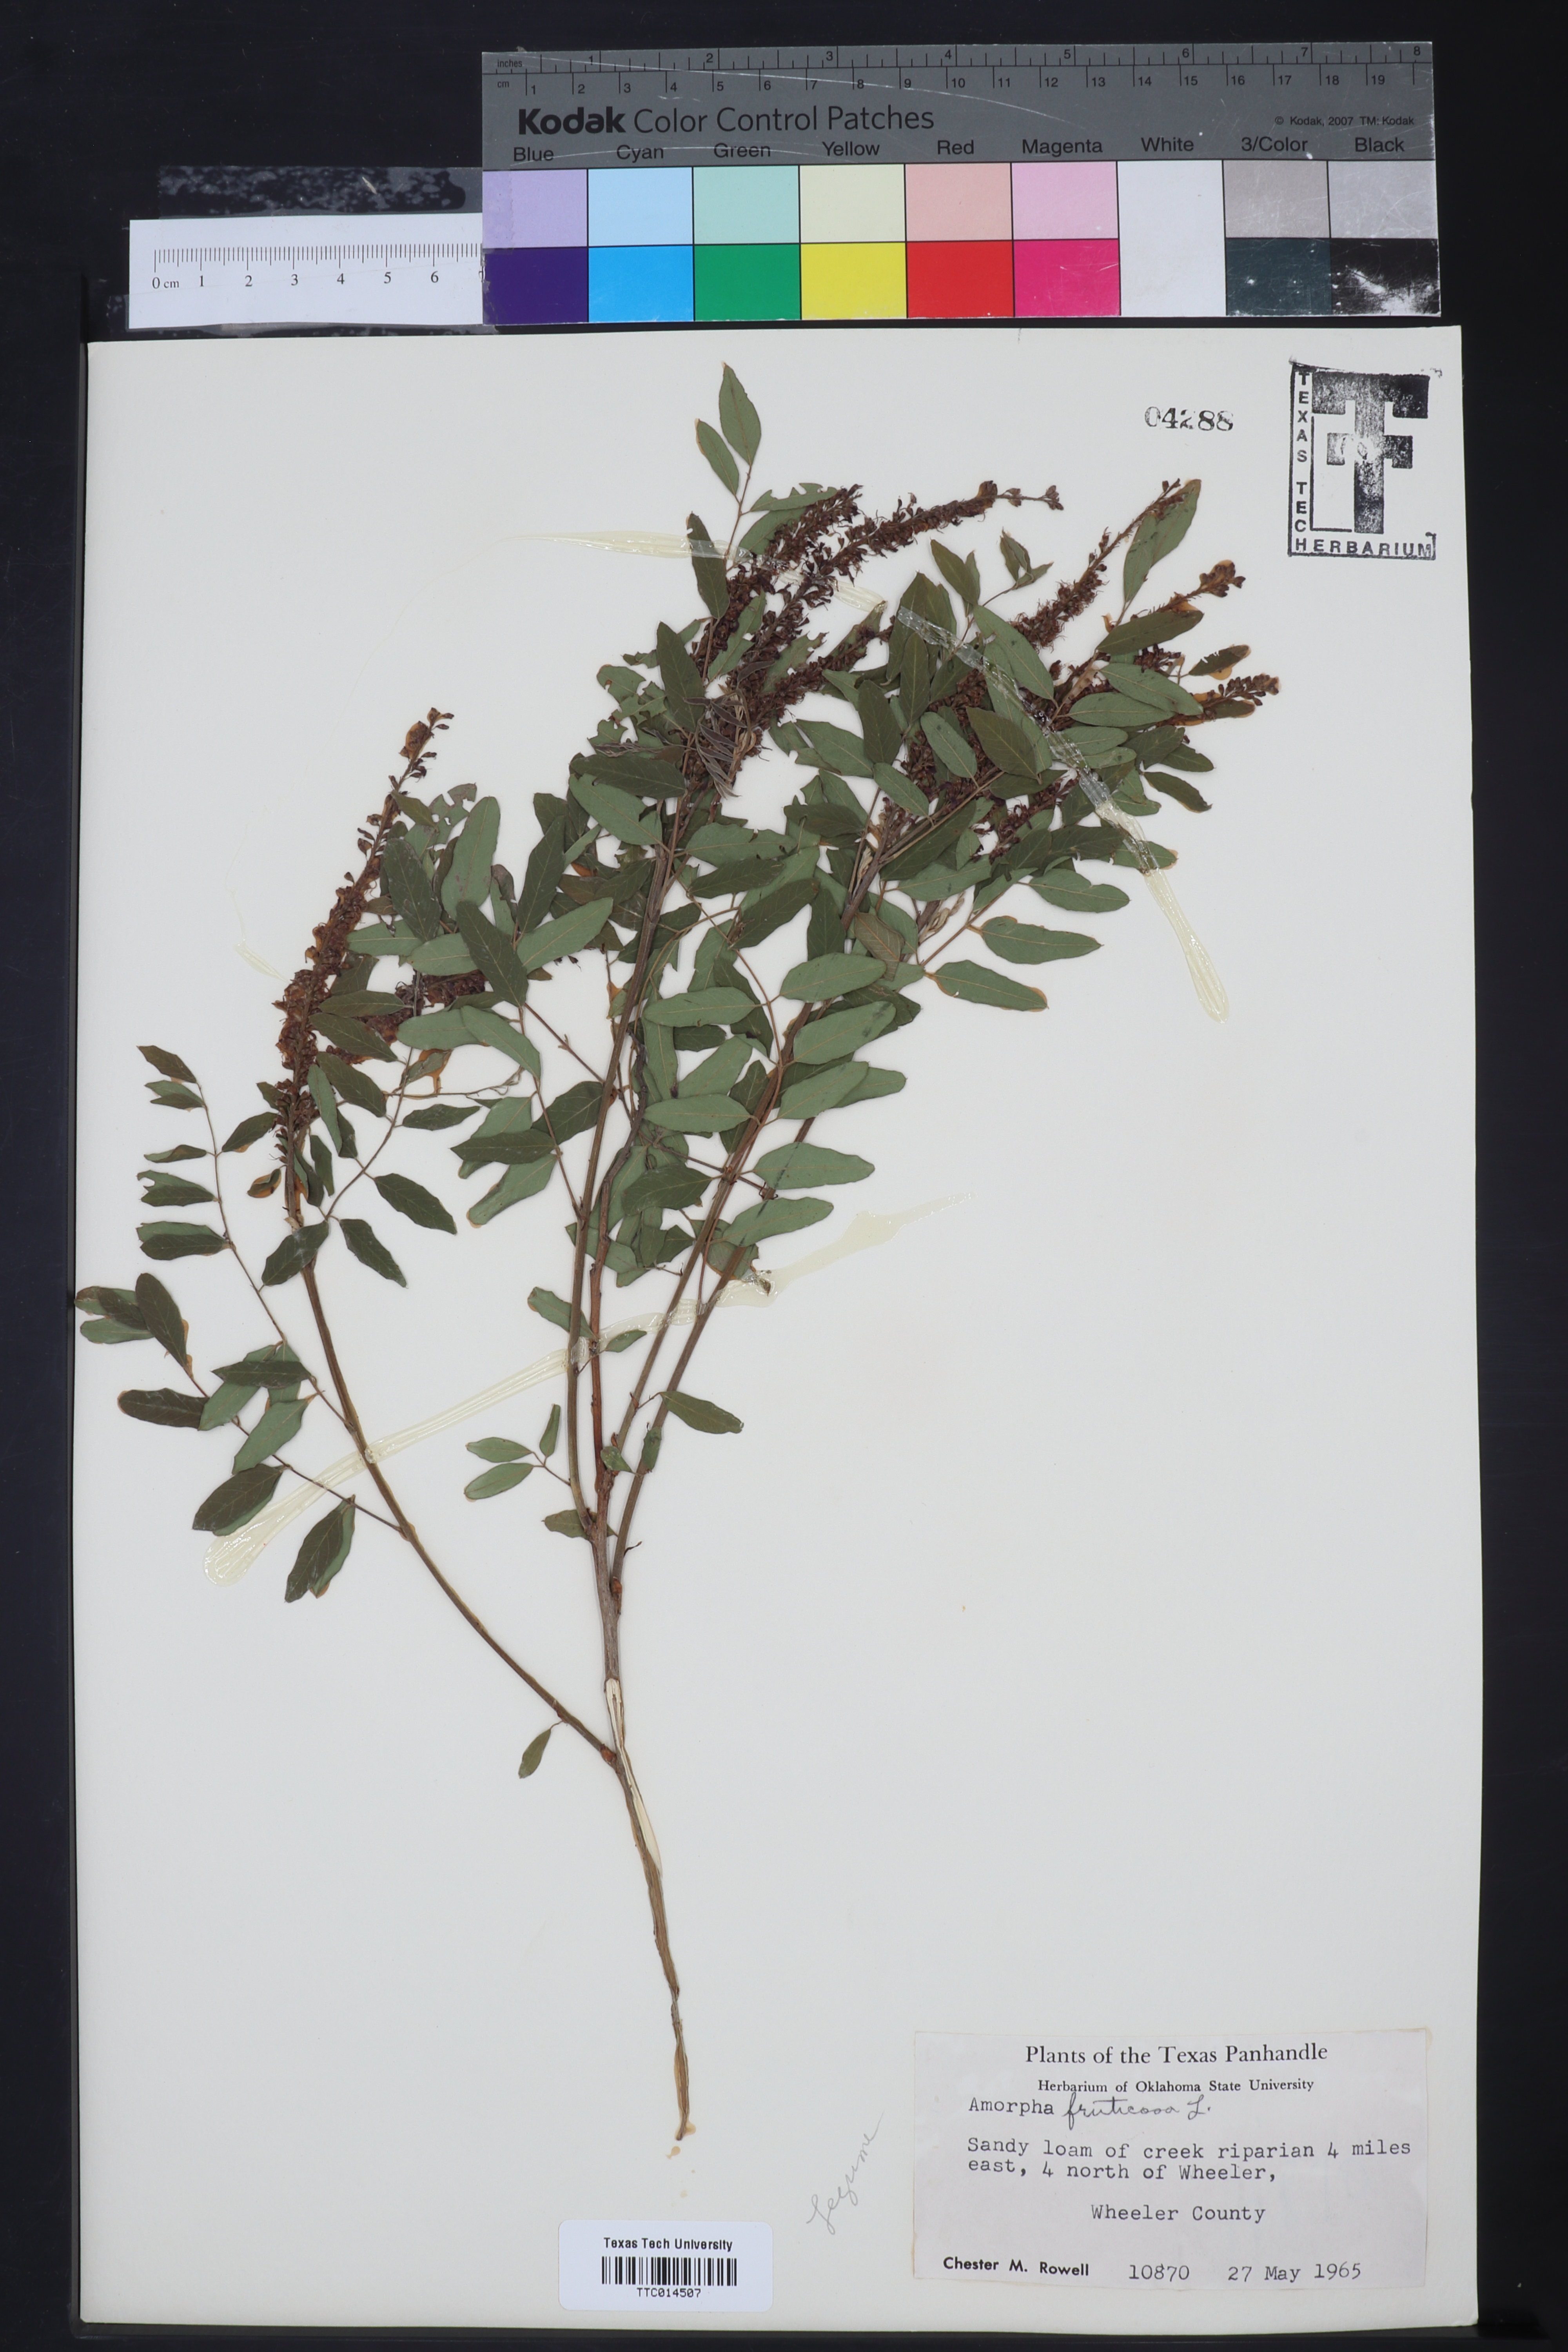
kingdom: Plantae
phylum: Tracheophyta
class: Magnoliopsida
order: Fabales
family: Fabaceae
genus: Amorpha
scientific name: Amorpha fruticosa
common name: False indigo
